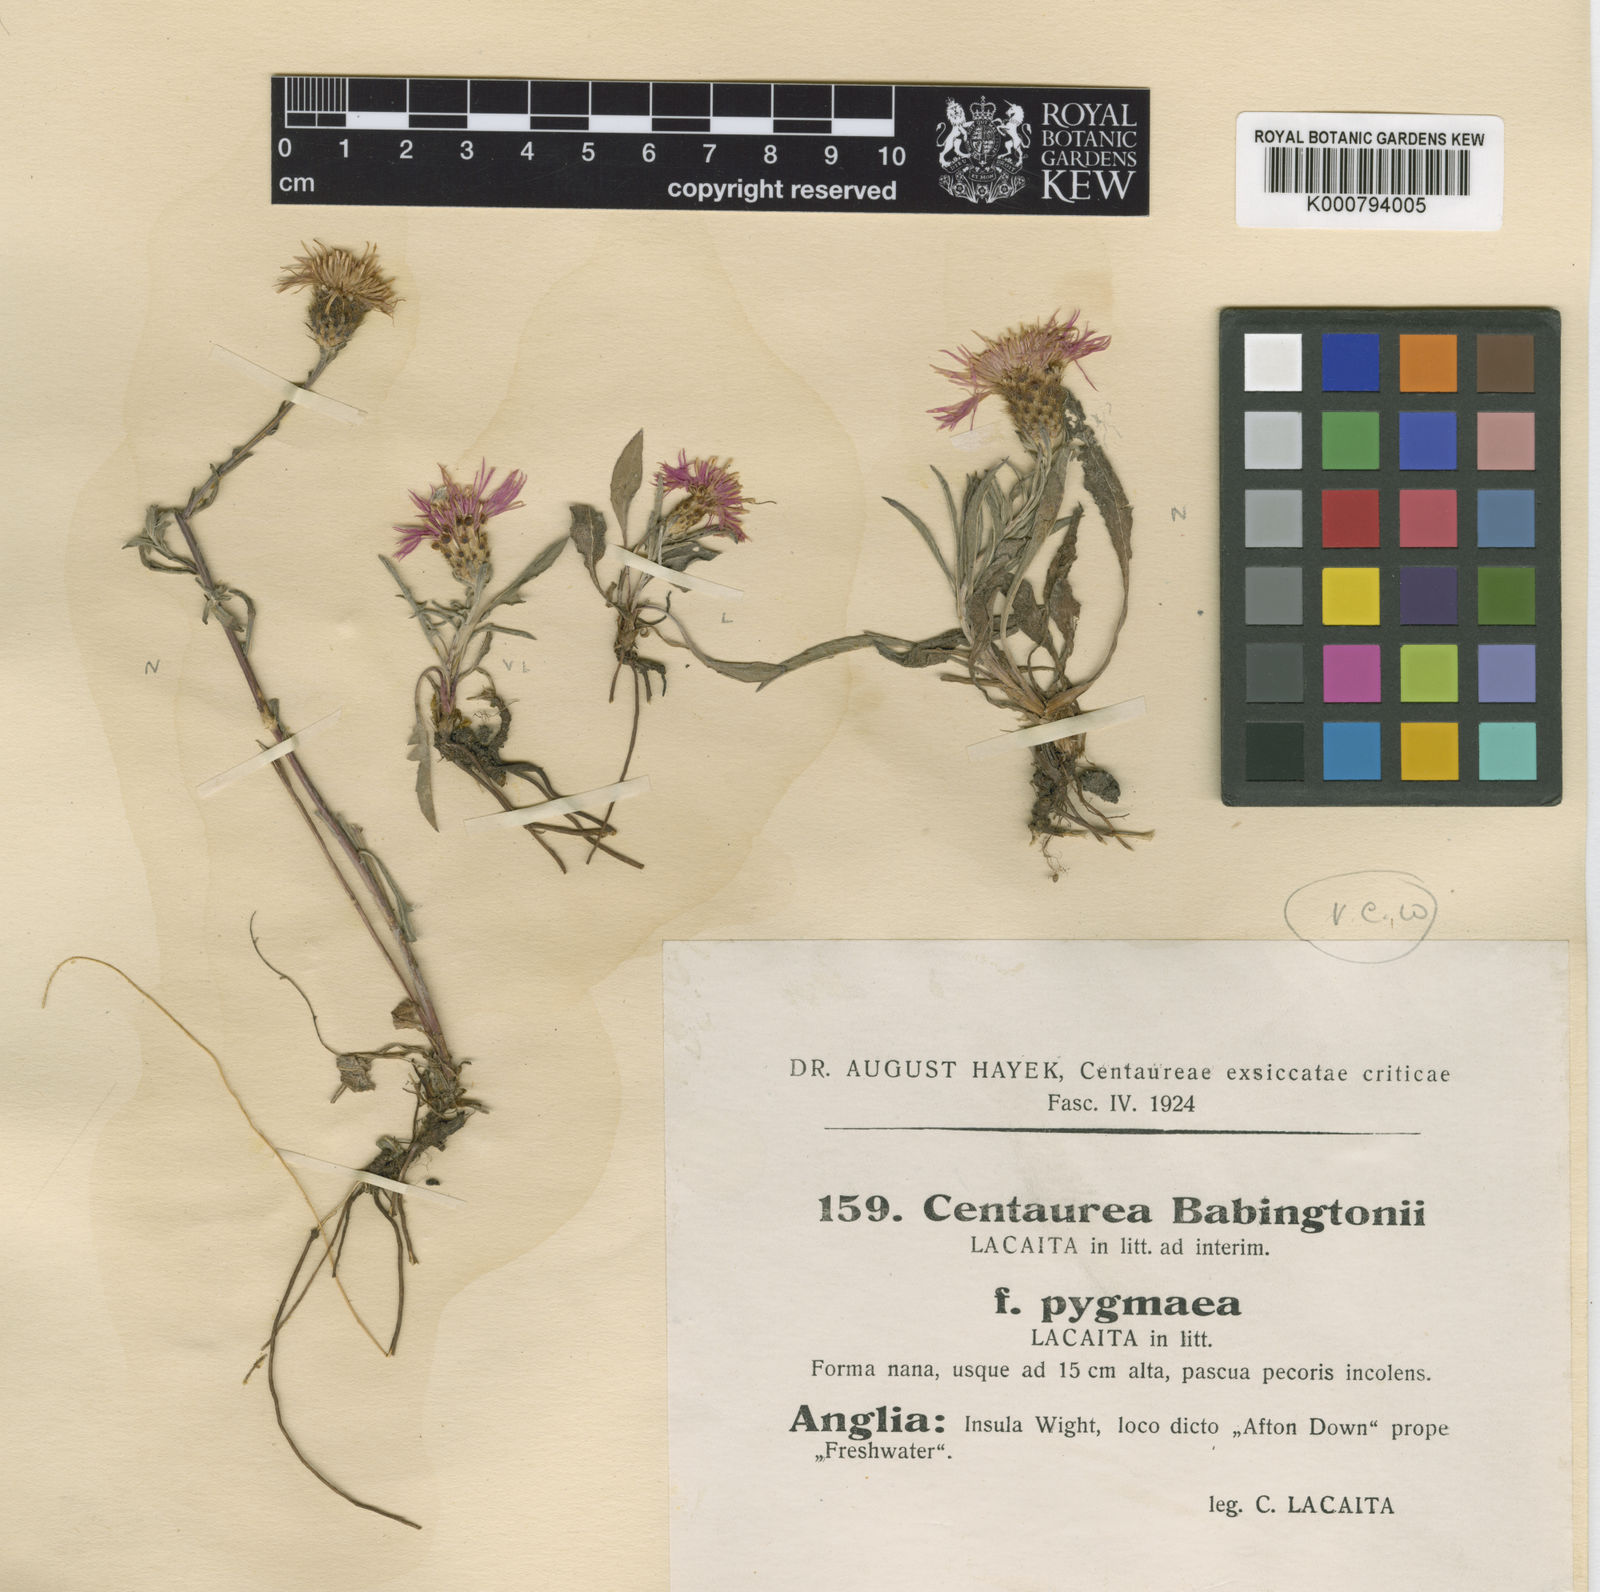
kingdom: Plantae
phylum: Tracheophyta
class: Magnoliopsida
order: Asterales
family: Asteraceae
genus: Centaurea
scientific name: Centaurea debeauxii
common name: Slender knapweed
